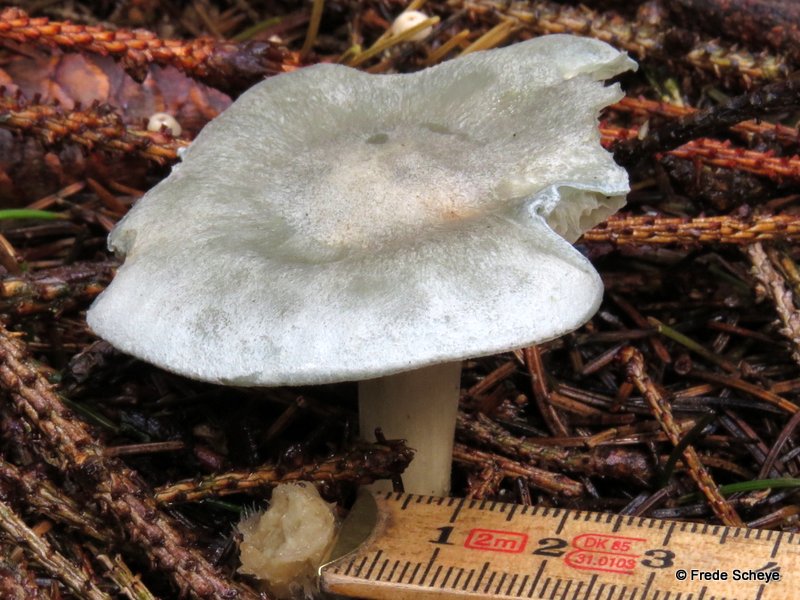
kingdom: Fungi
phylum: Basidiomycota
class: Agaricomycetes
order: Agaricales
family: Tricholomataceae
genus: Clitocybe
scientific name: Clitocybe odora
